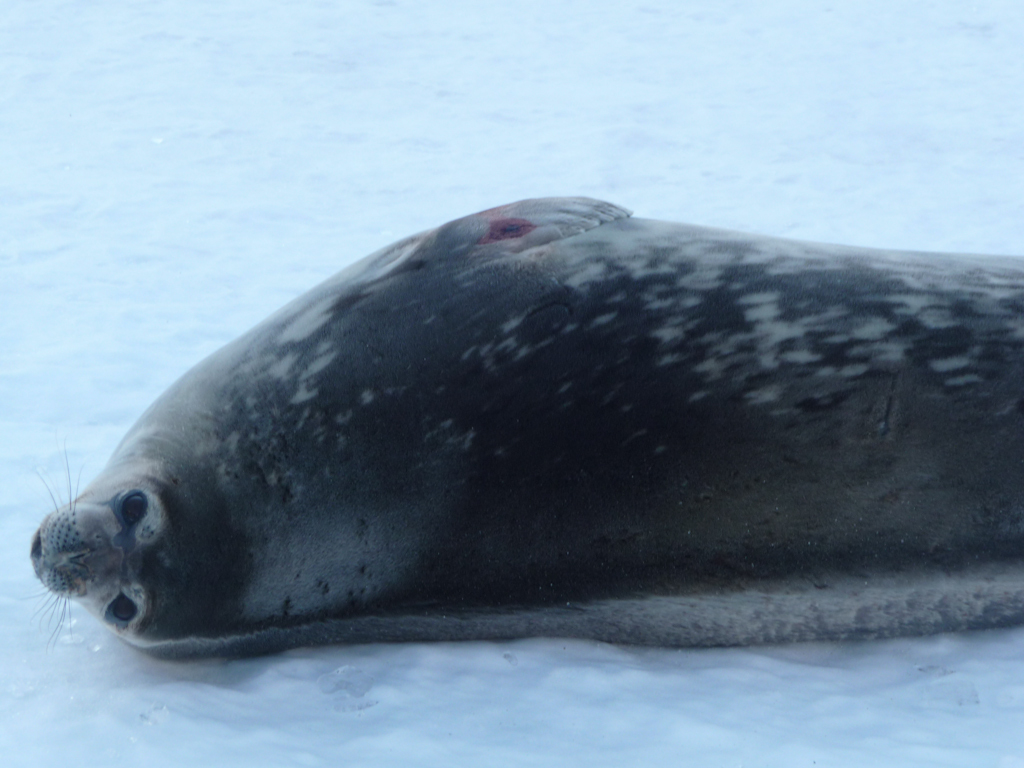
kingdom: Animalia
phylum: Chordata
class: Mammalia
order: Carnivora
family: Phocidae
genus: Leptonychotes
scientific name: Leptonychotes weddellii
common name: Weddell Seal
